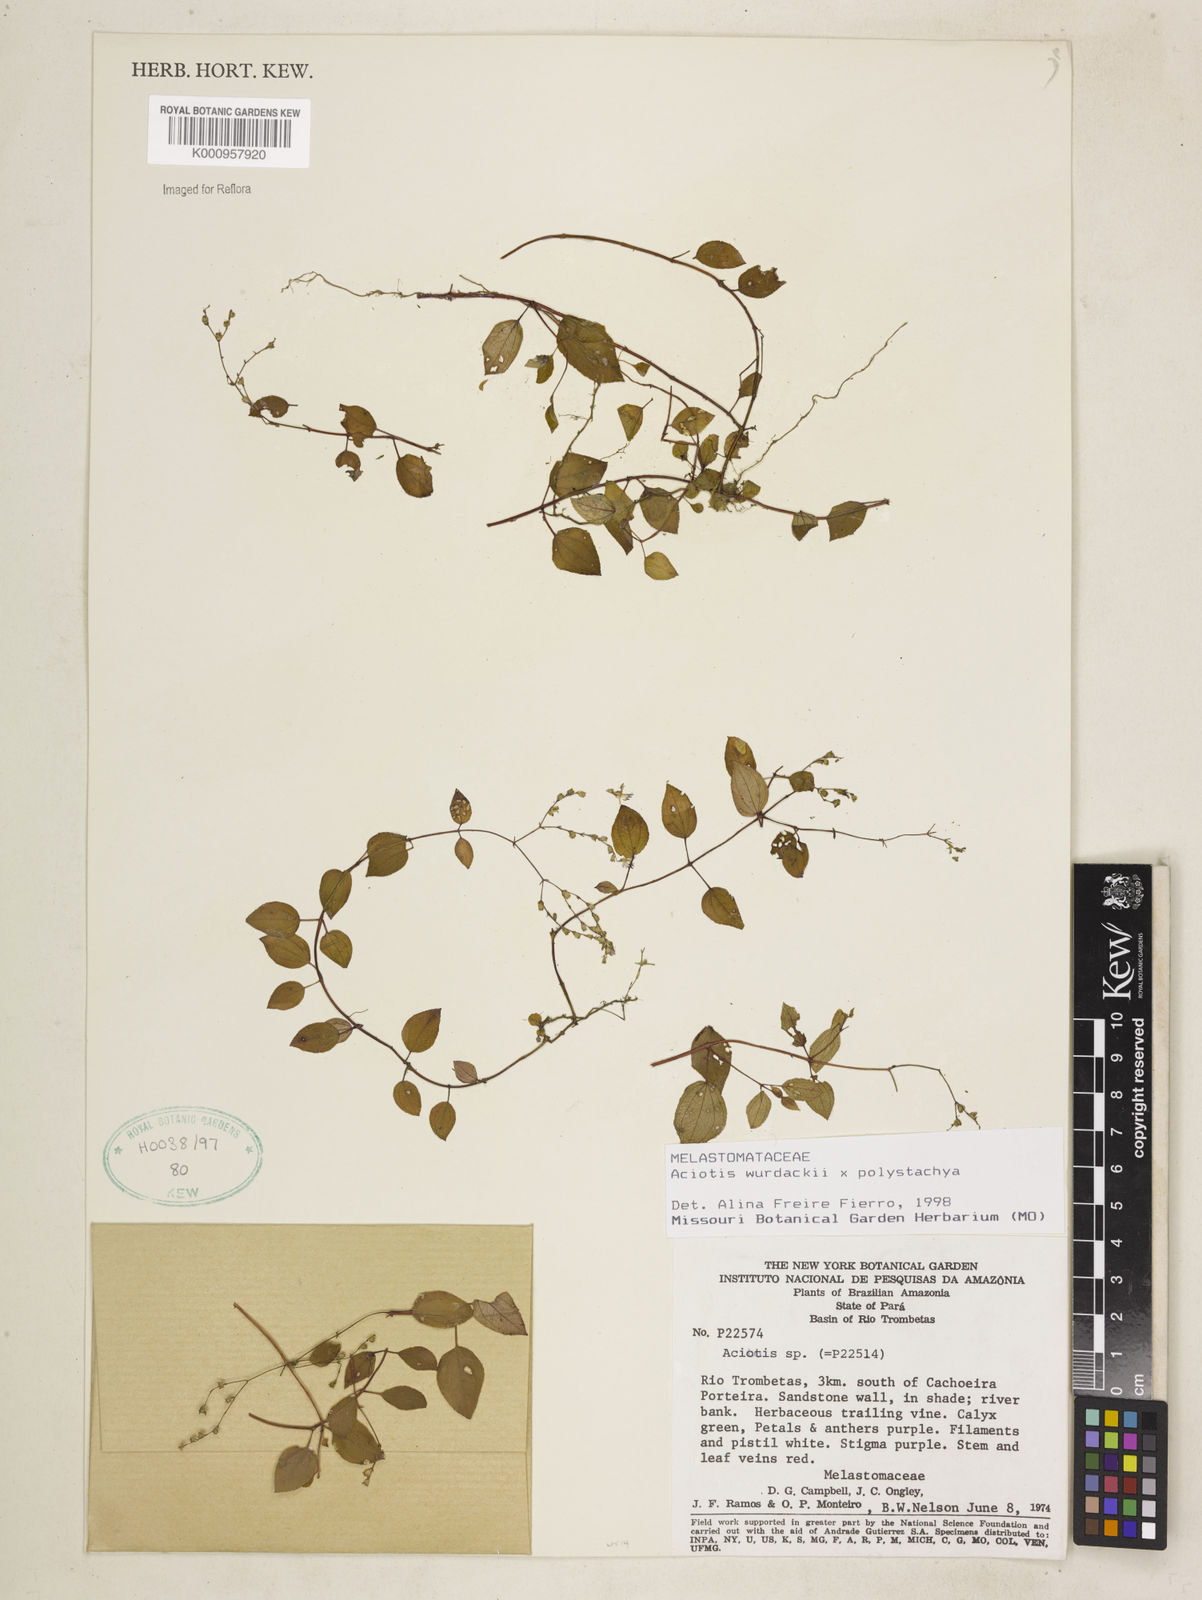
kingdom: Plantae
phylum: Tracheophyta
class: Magnoliopsida
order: Myrtales
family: Melastomataceae
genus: Aciotis
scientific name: Aciotis
